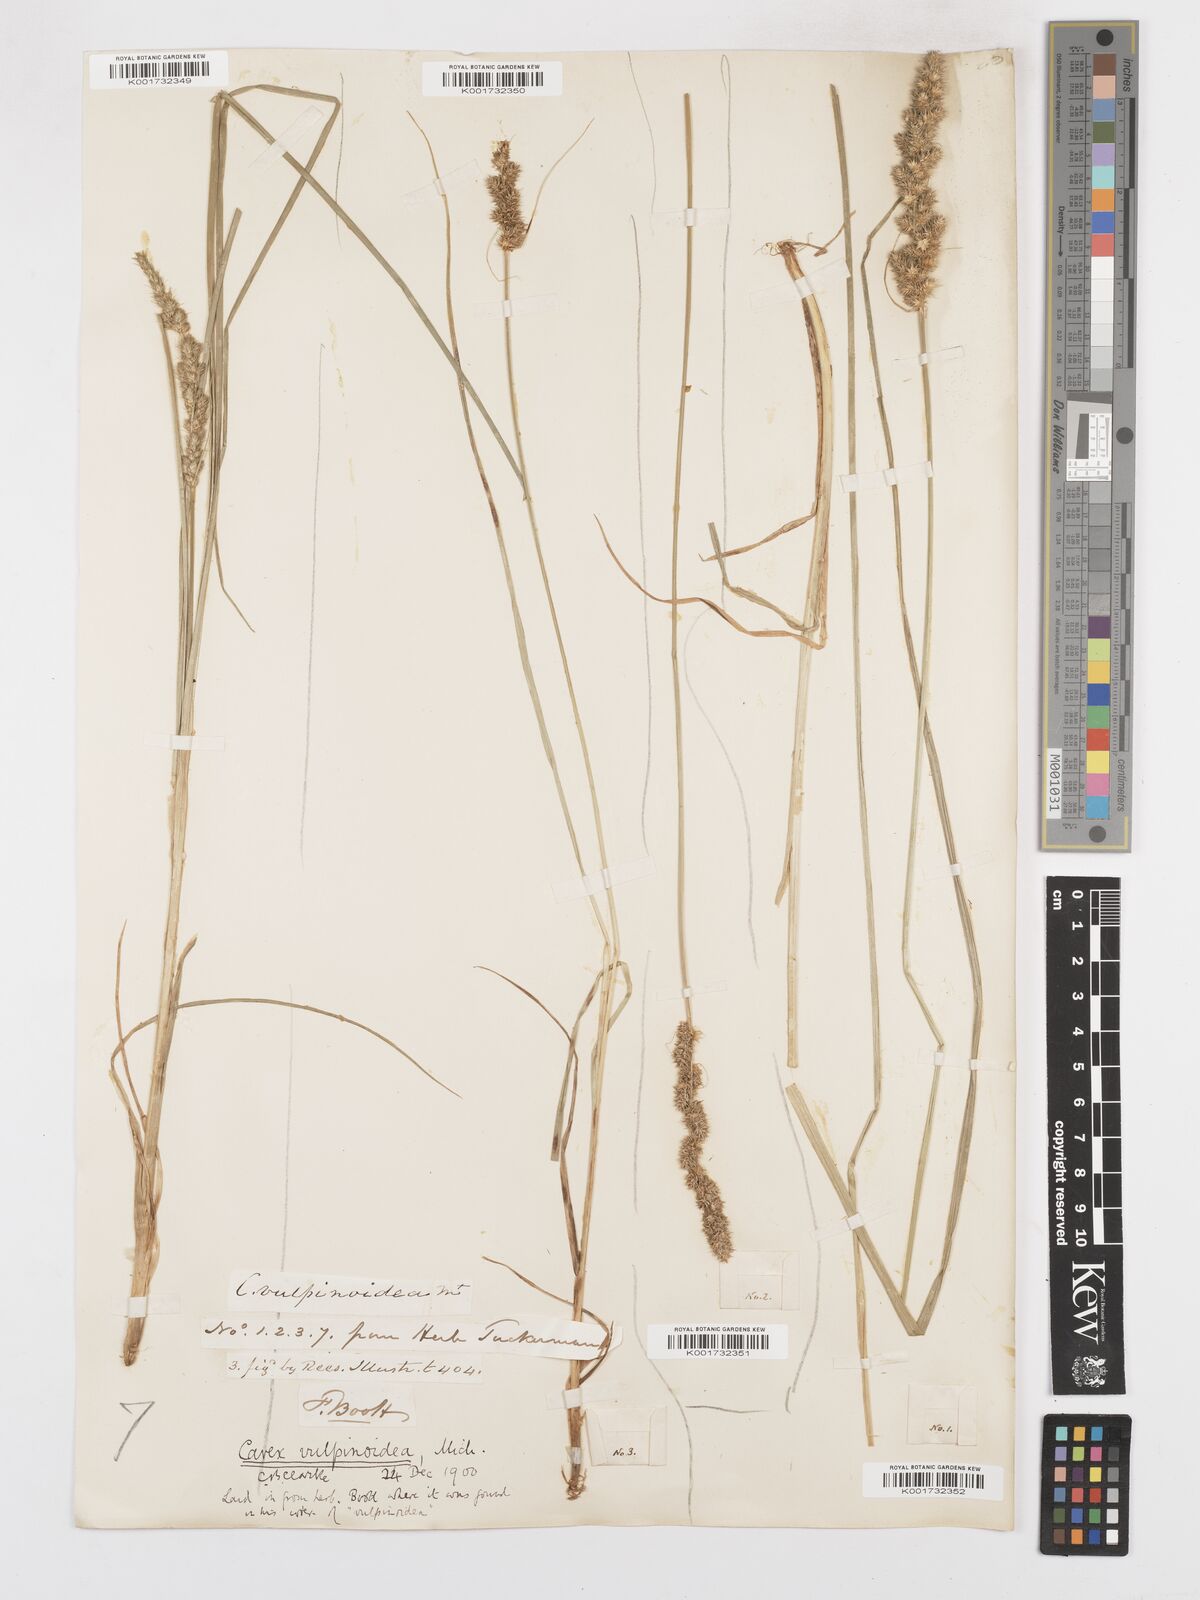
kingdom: Plantae
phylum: Tracheophyta
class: Liliopsida
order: Poales
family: Cyperaceae
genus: Carex
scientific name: Carex vulpinoidea
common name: American fox-sedge
